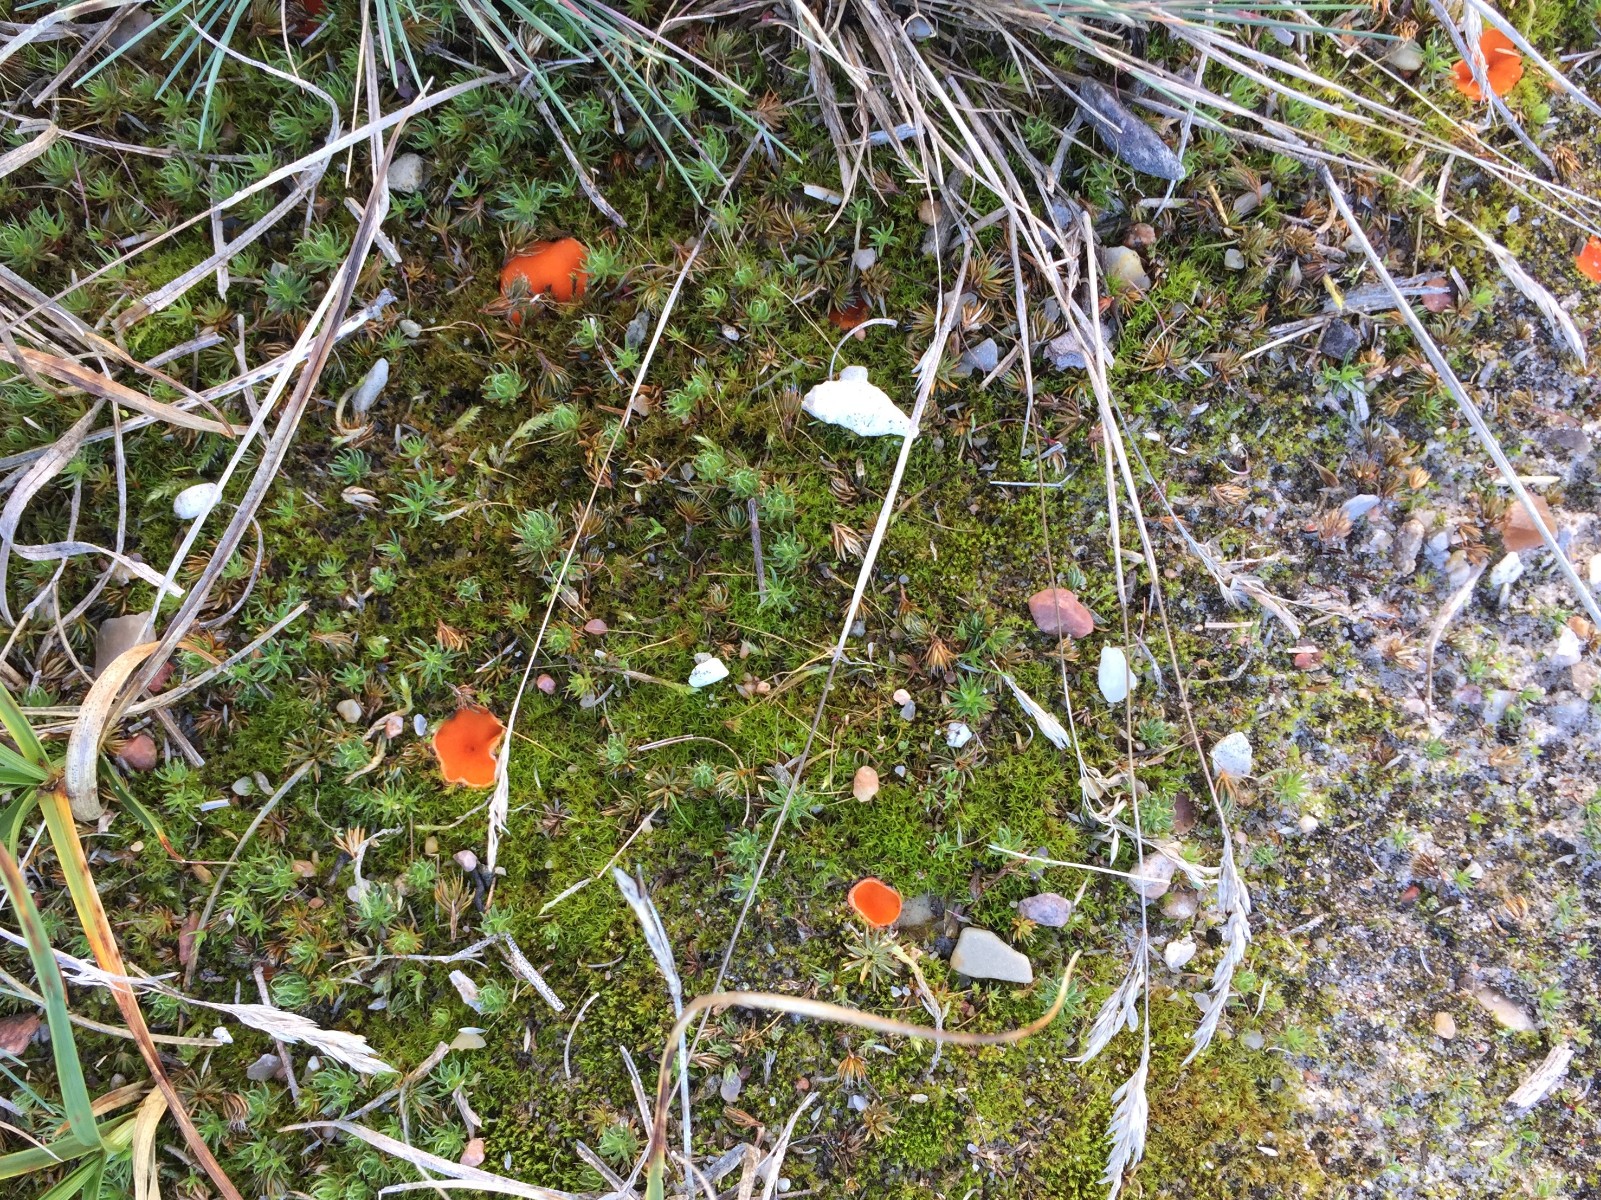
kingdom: Fungi
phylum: Ascomycota
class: Pezizomycetes
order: Pezizales
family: Pyronemataceae
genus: Neottiella
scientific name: Neottiella
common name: mosbæger
